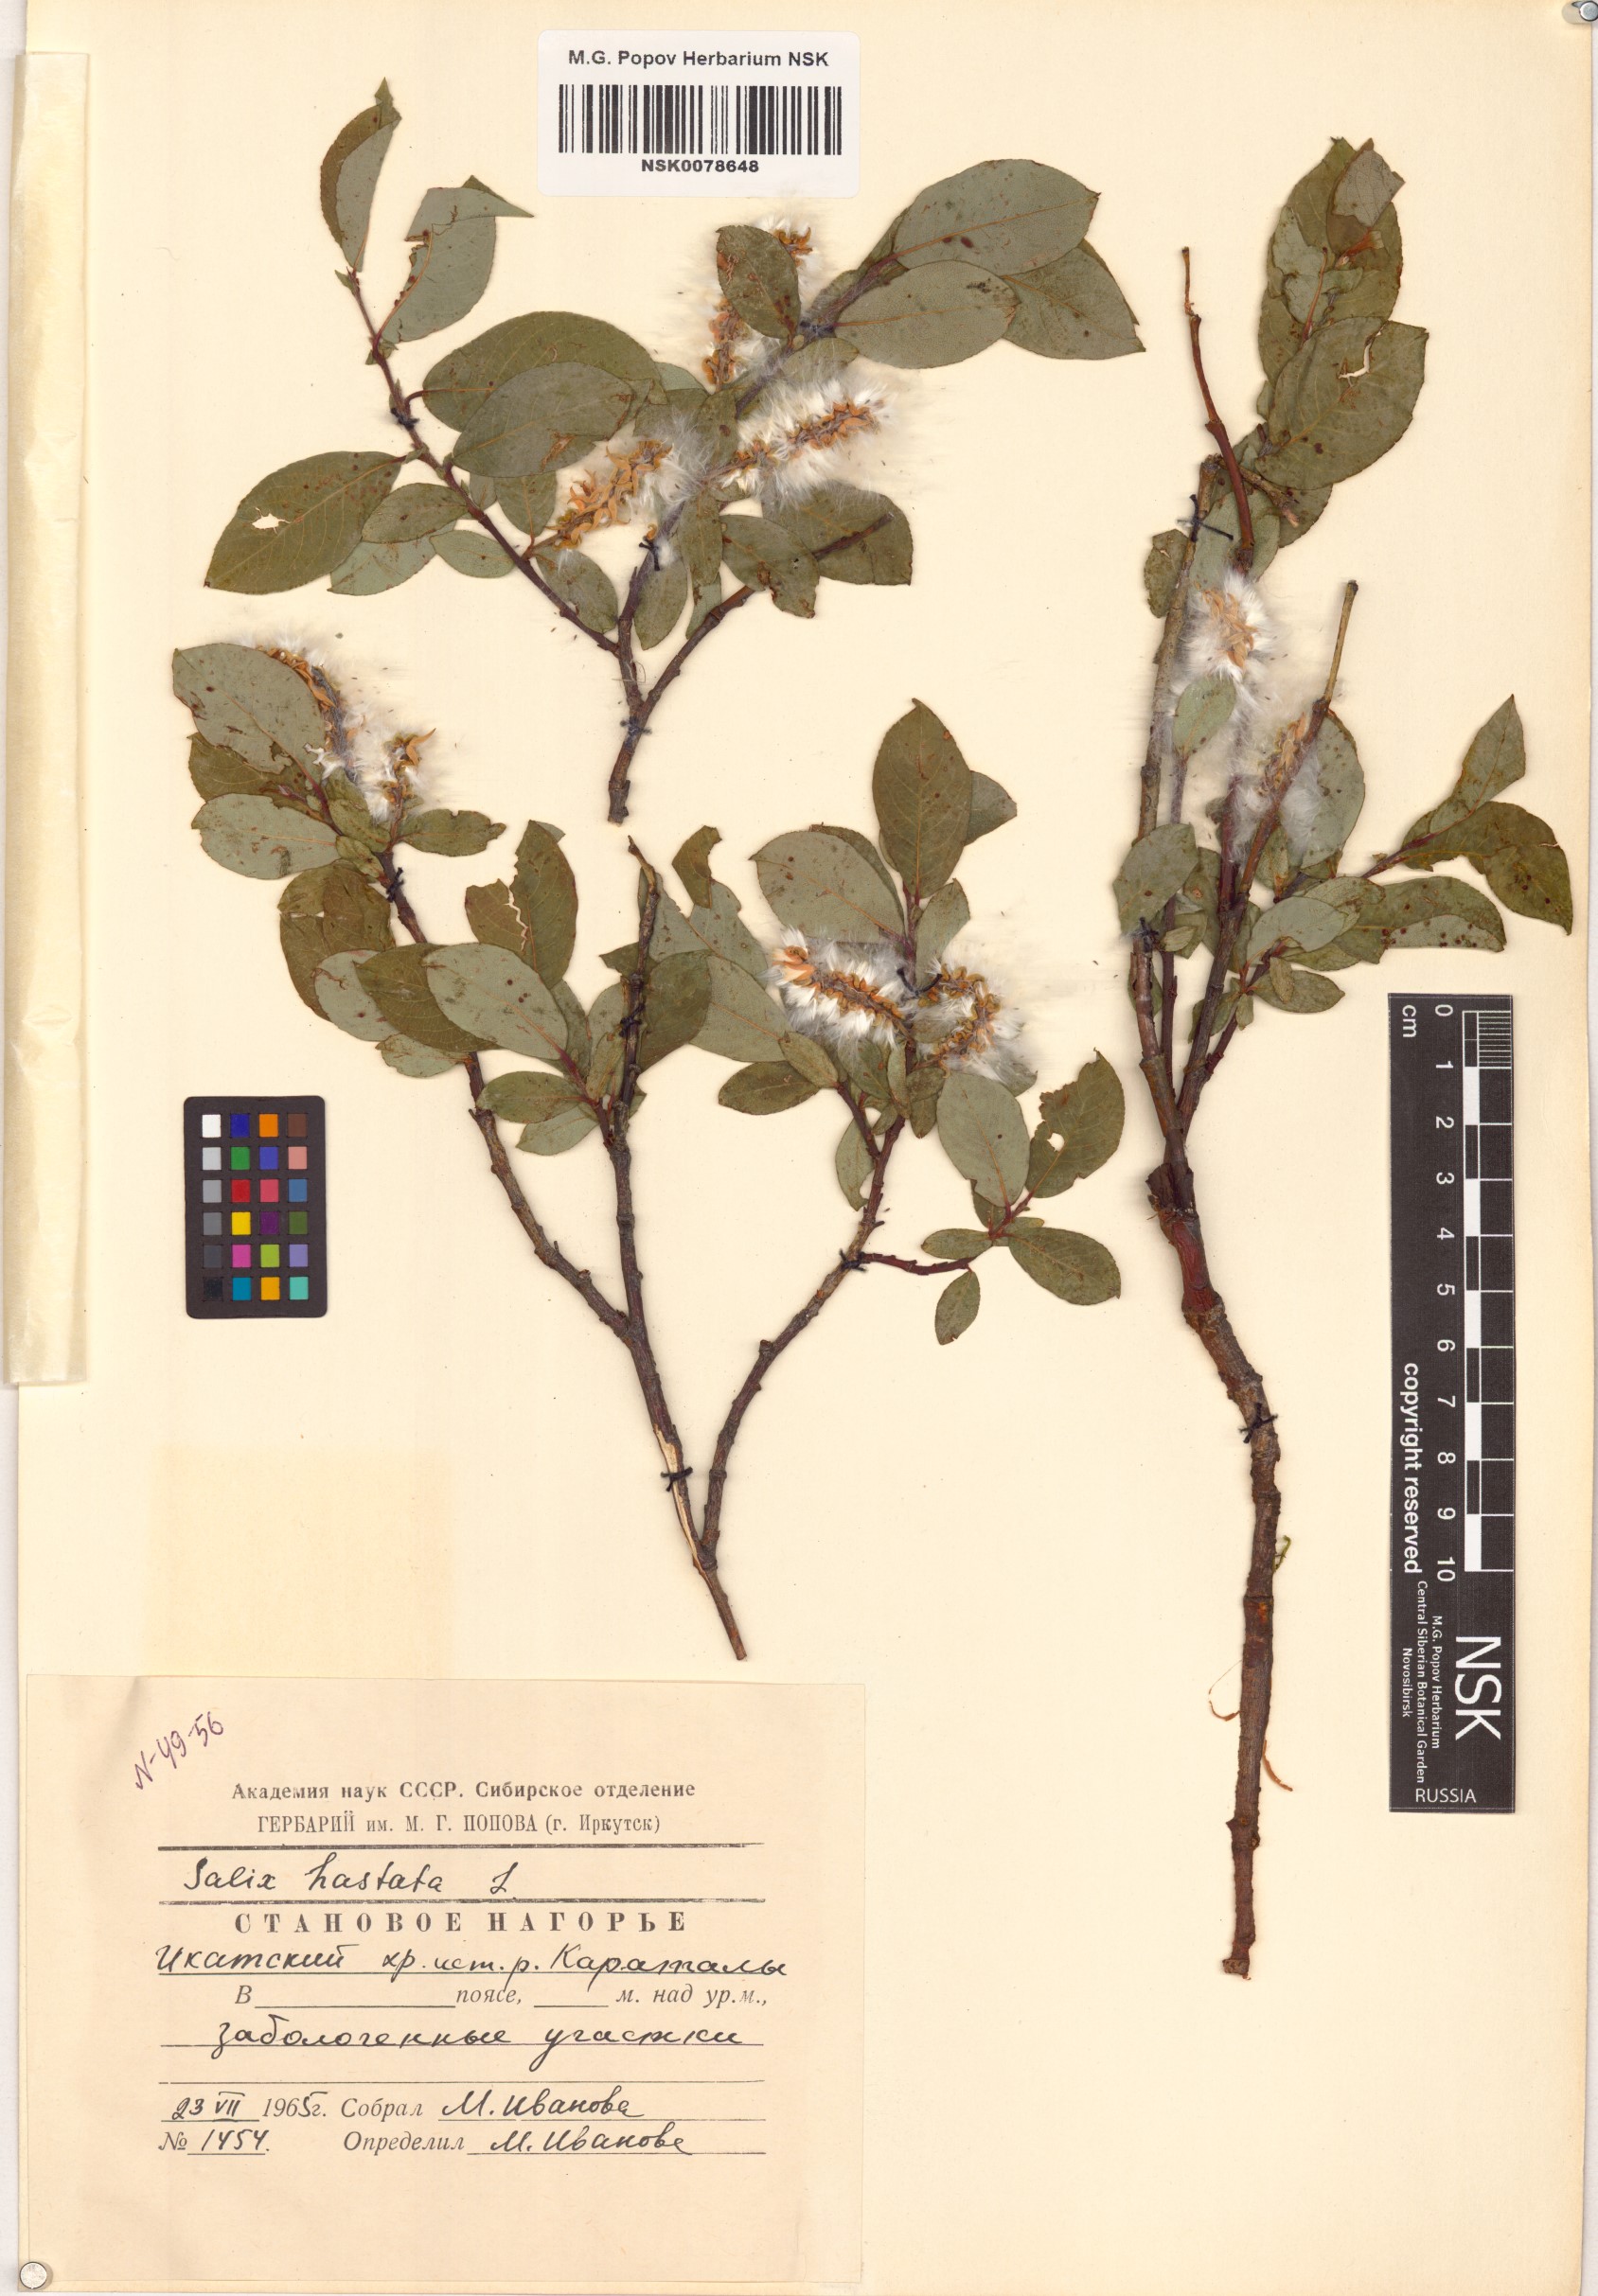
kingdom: Plantae
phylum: Tracheophyta
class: Magnoliopsida
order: Malpighiales
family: Salicaceae
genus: Salix
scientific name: Salix hastata
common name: Halberd willow
